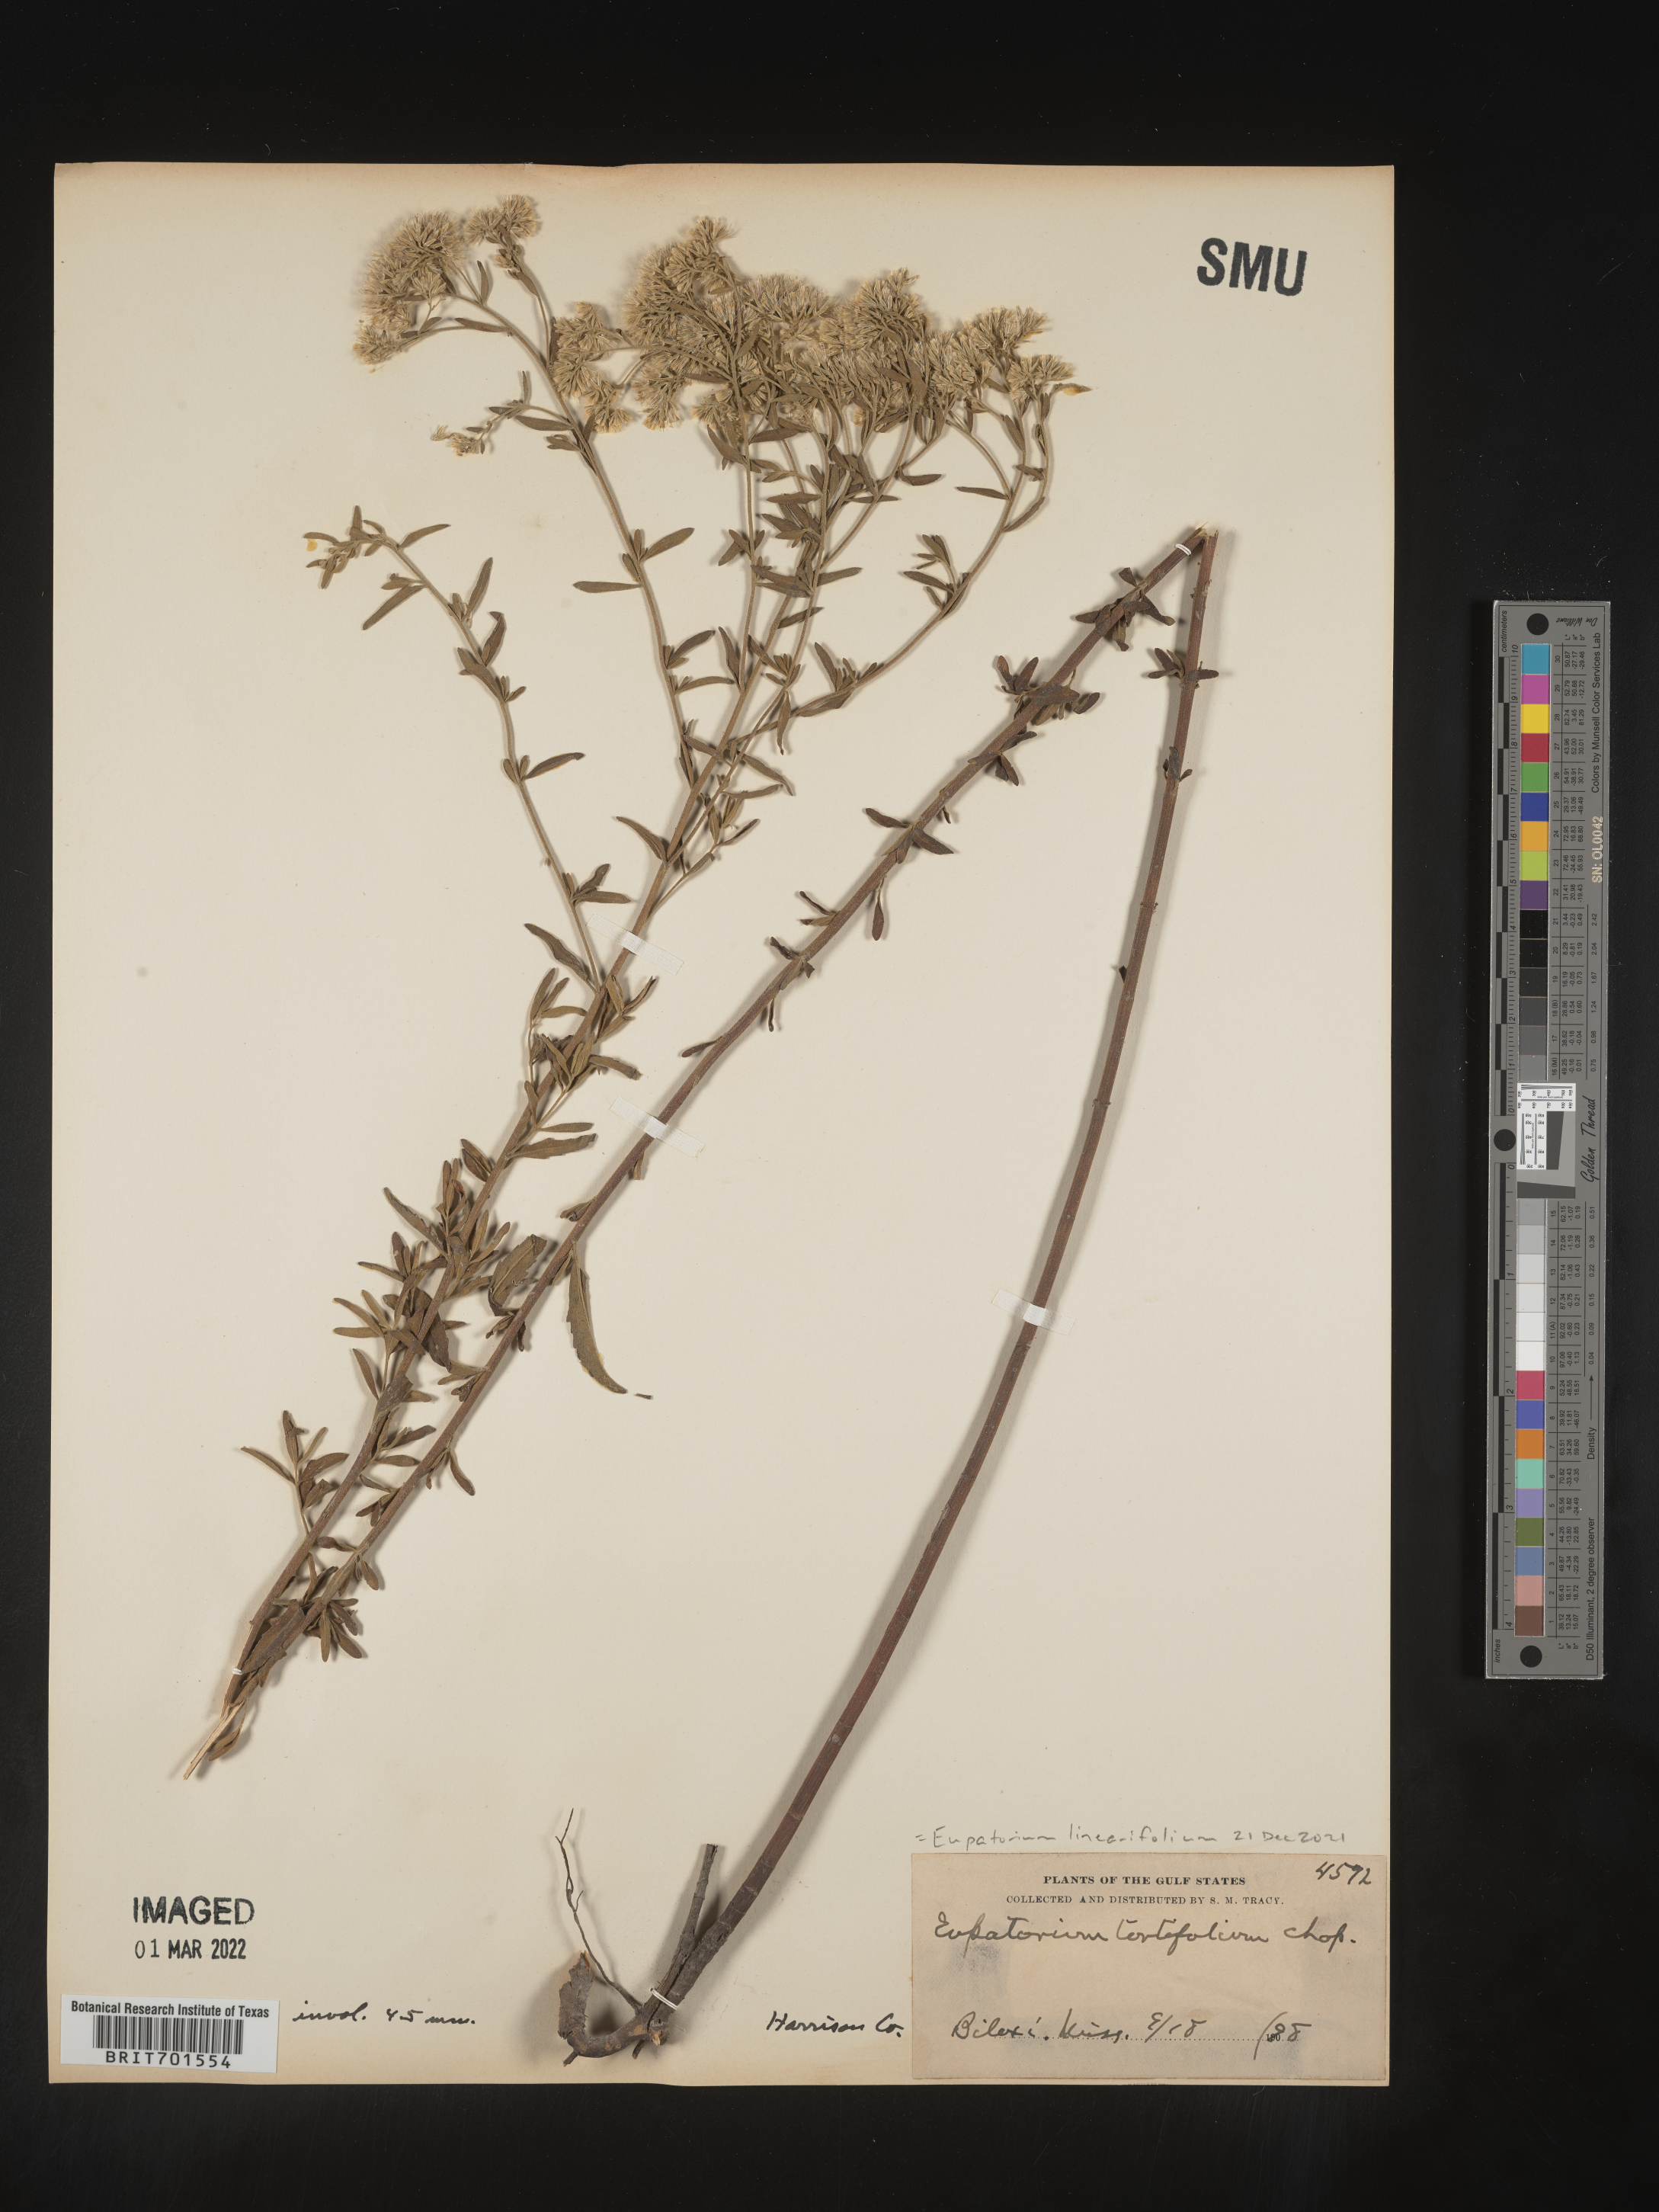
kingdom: Plantae
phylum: Tracheophyta
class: Magnoliopsida
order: Asterales
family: Asteraceae
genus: Eupatorium
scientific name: Eupatorium linearifolium
